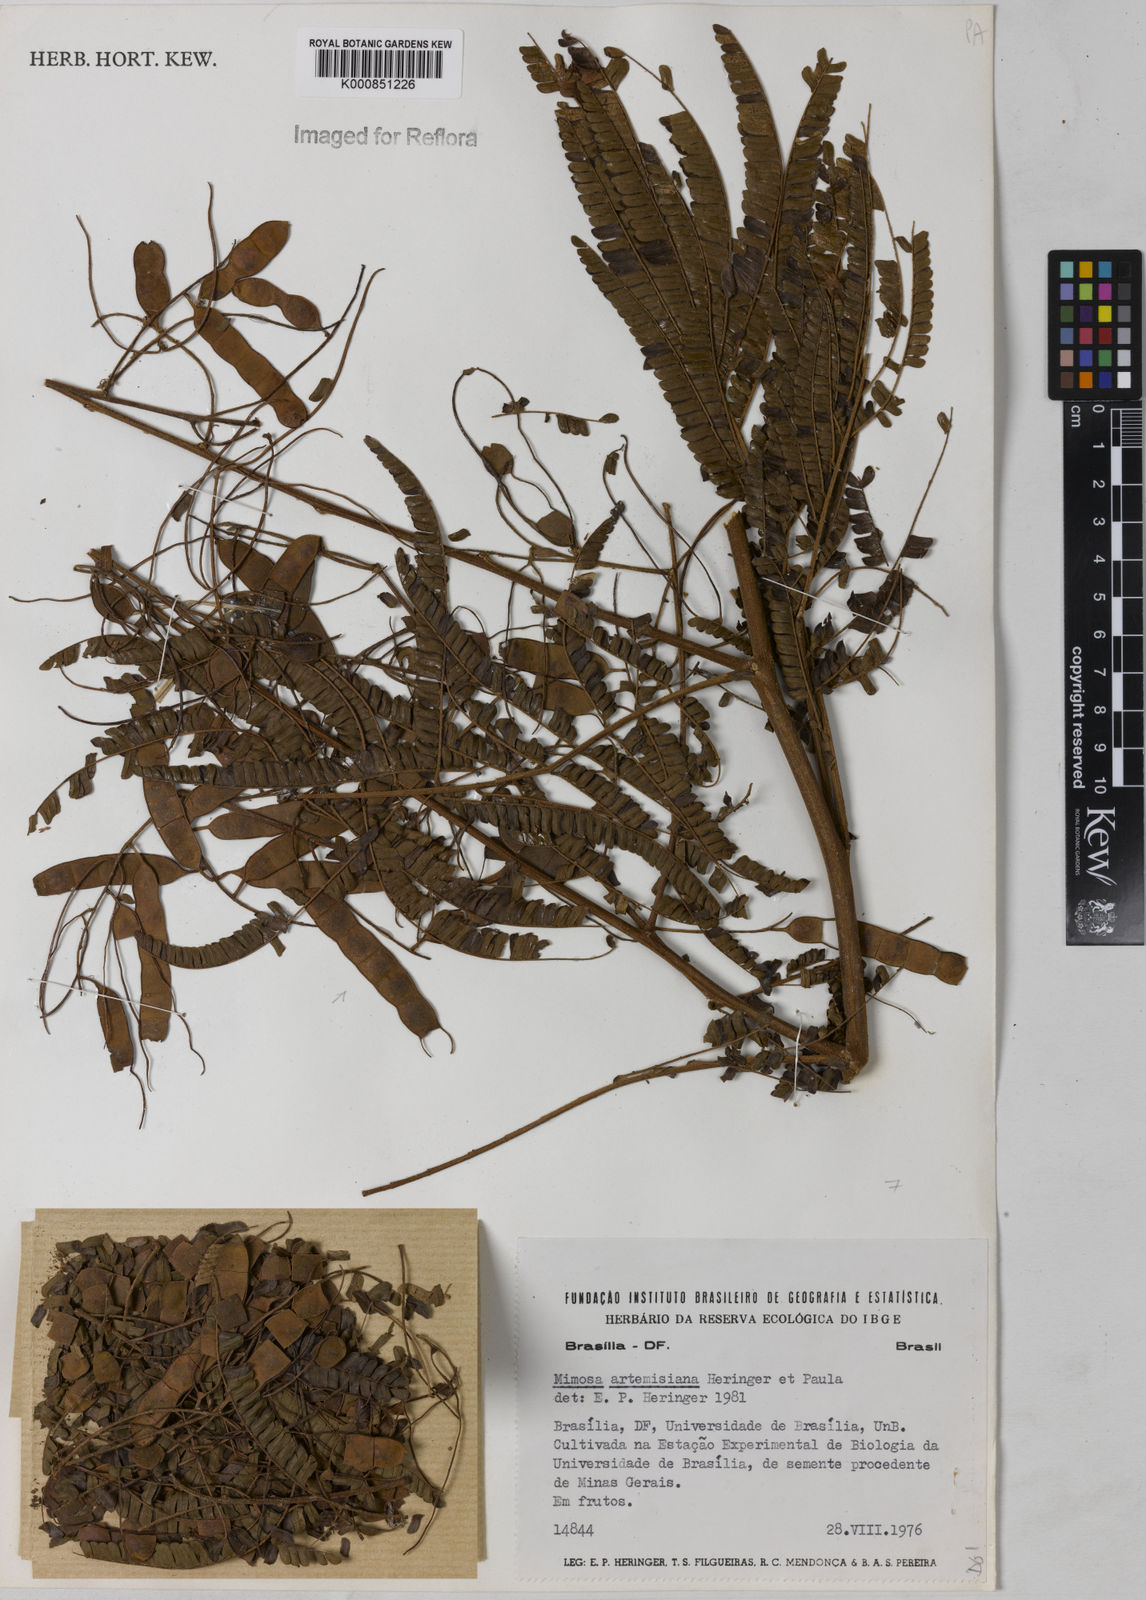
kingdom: Plantae
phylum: Tracheophyta
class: Magnoliopsida
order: Fabales
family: Fabaceae
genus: Mimosa
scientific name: Mimosa schomburgkii
